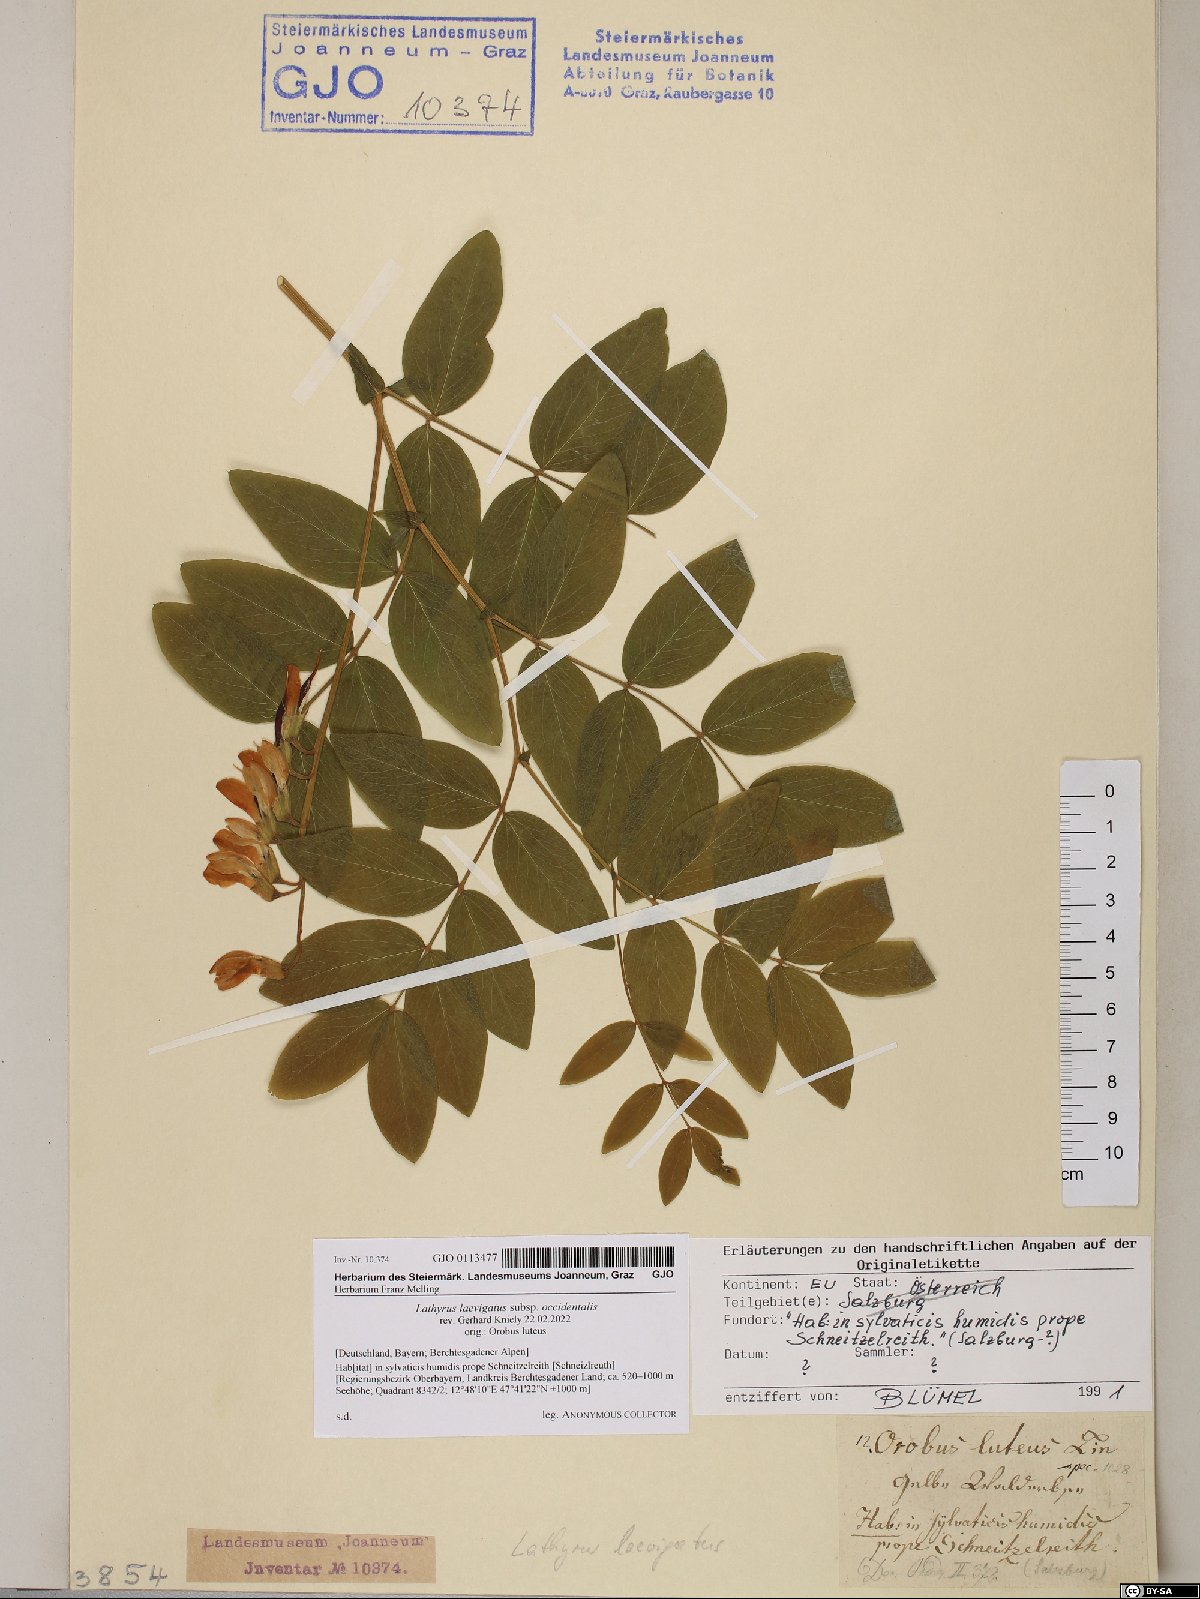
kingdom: Plantae
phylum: Tracheophyta
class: Magnoliopsida
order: Fabales
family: Fabaceae
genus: Lathyrus
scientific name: Lathyrus laevigatus
